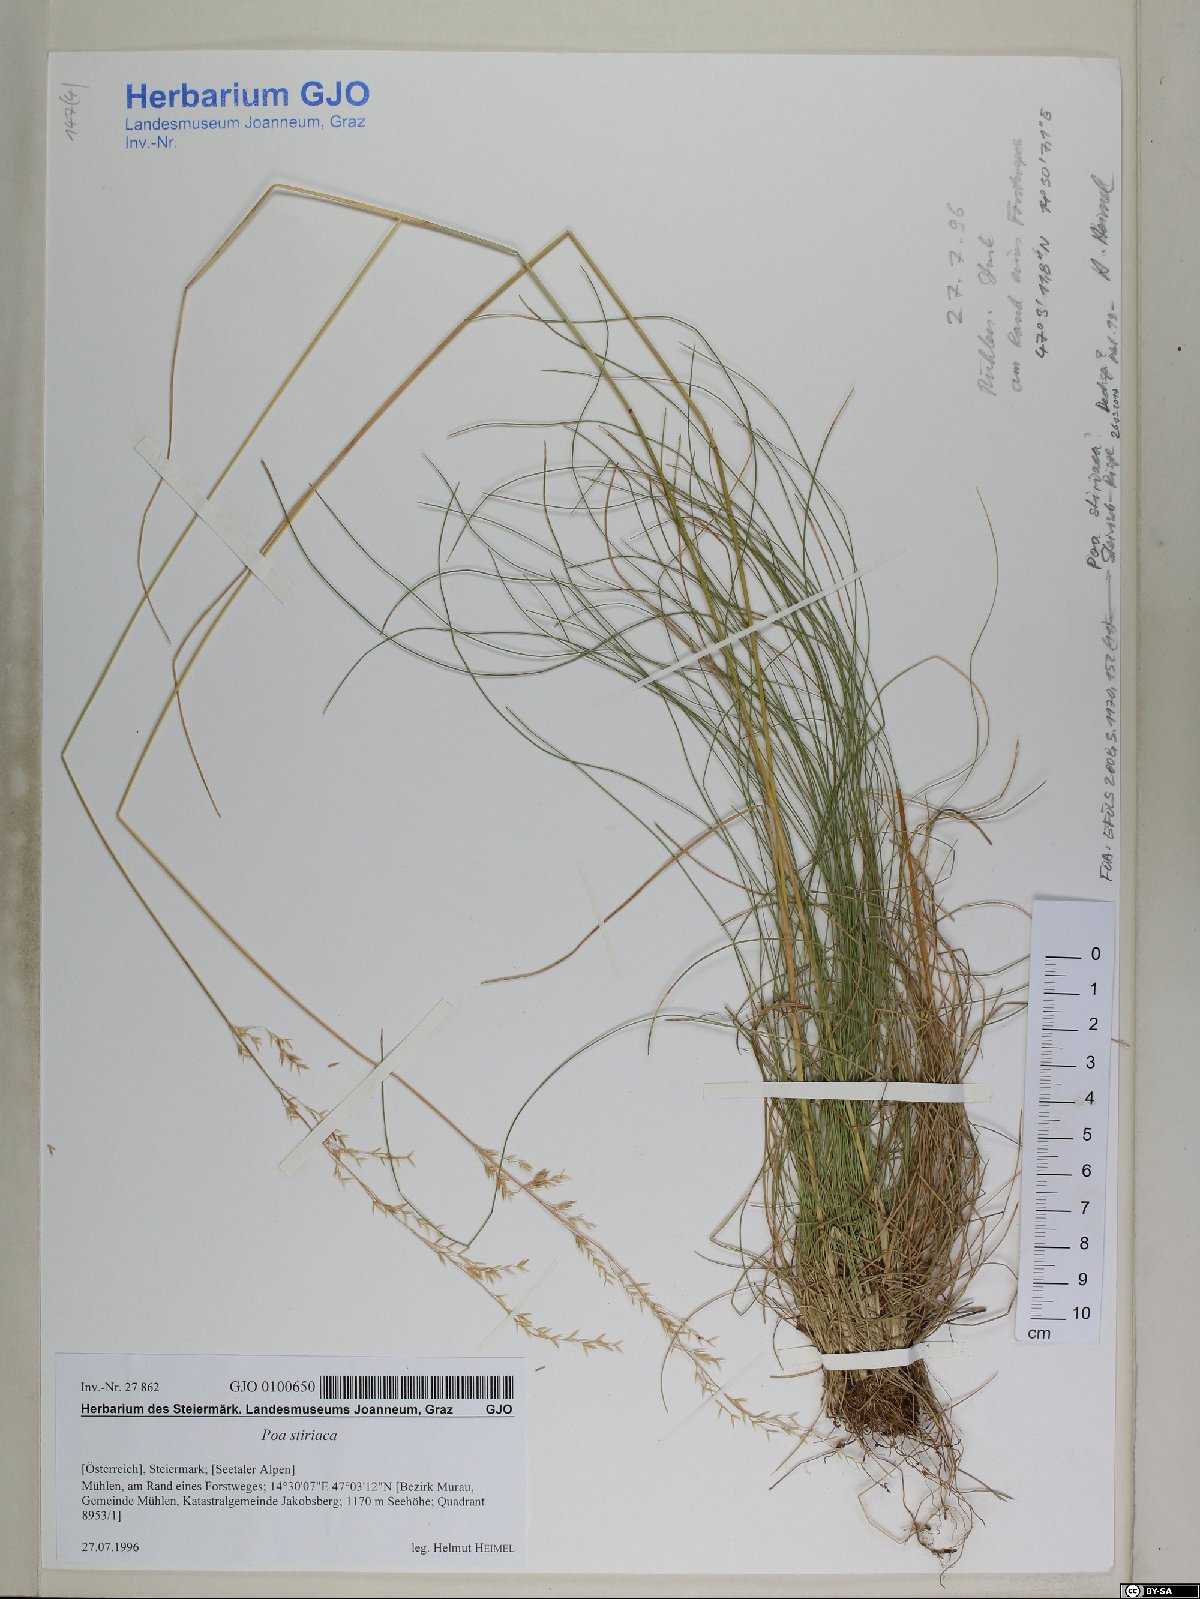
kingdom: Plantae
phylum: Tracheophyta
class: Liliopsida
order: Poales
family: Poaceae
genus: Poa
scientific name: Poa stiriaca
